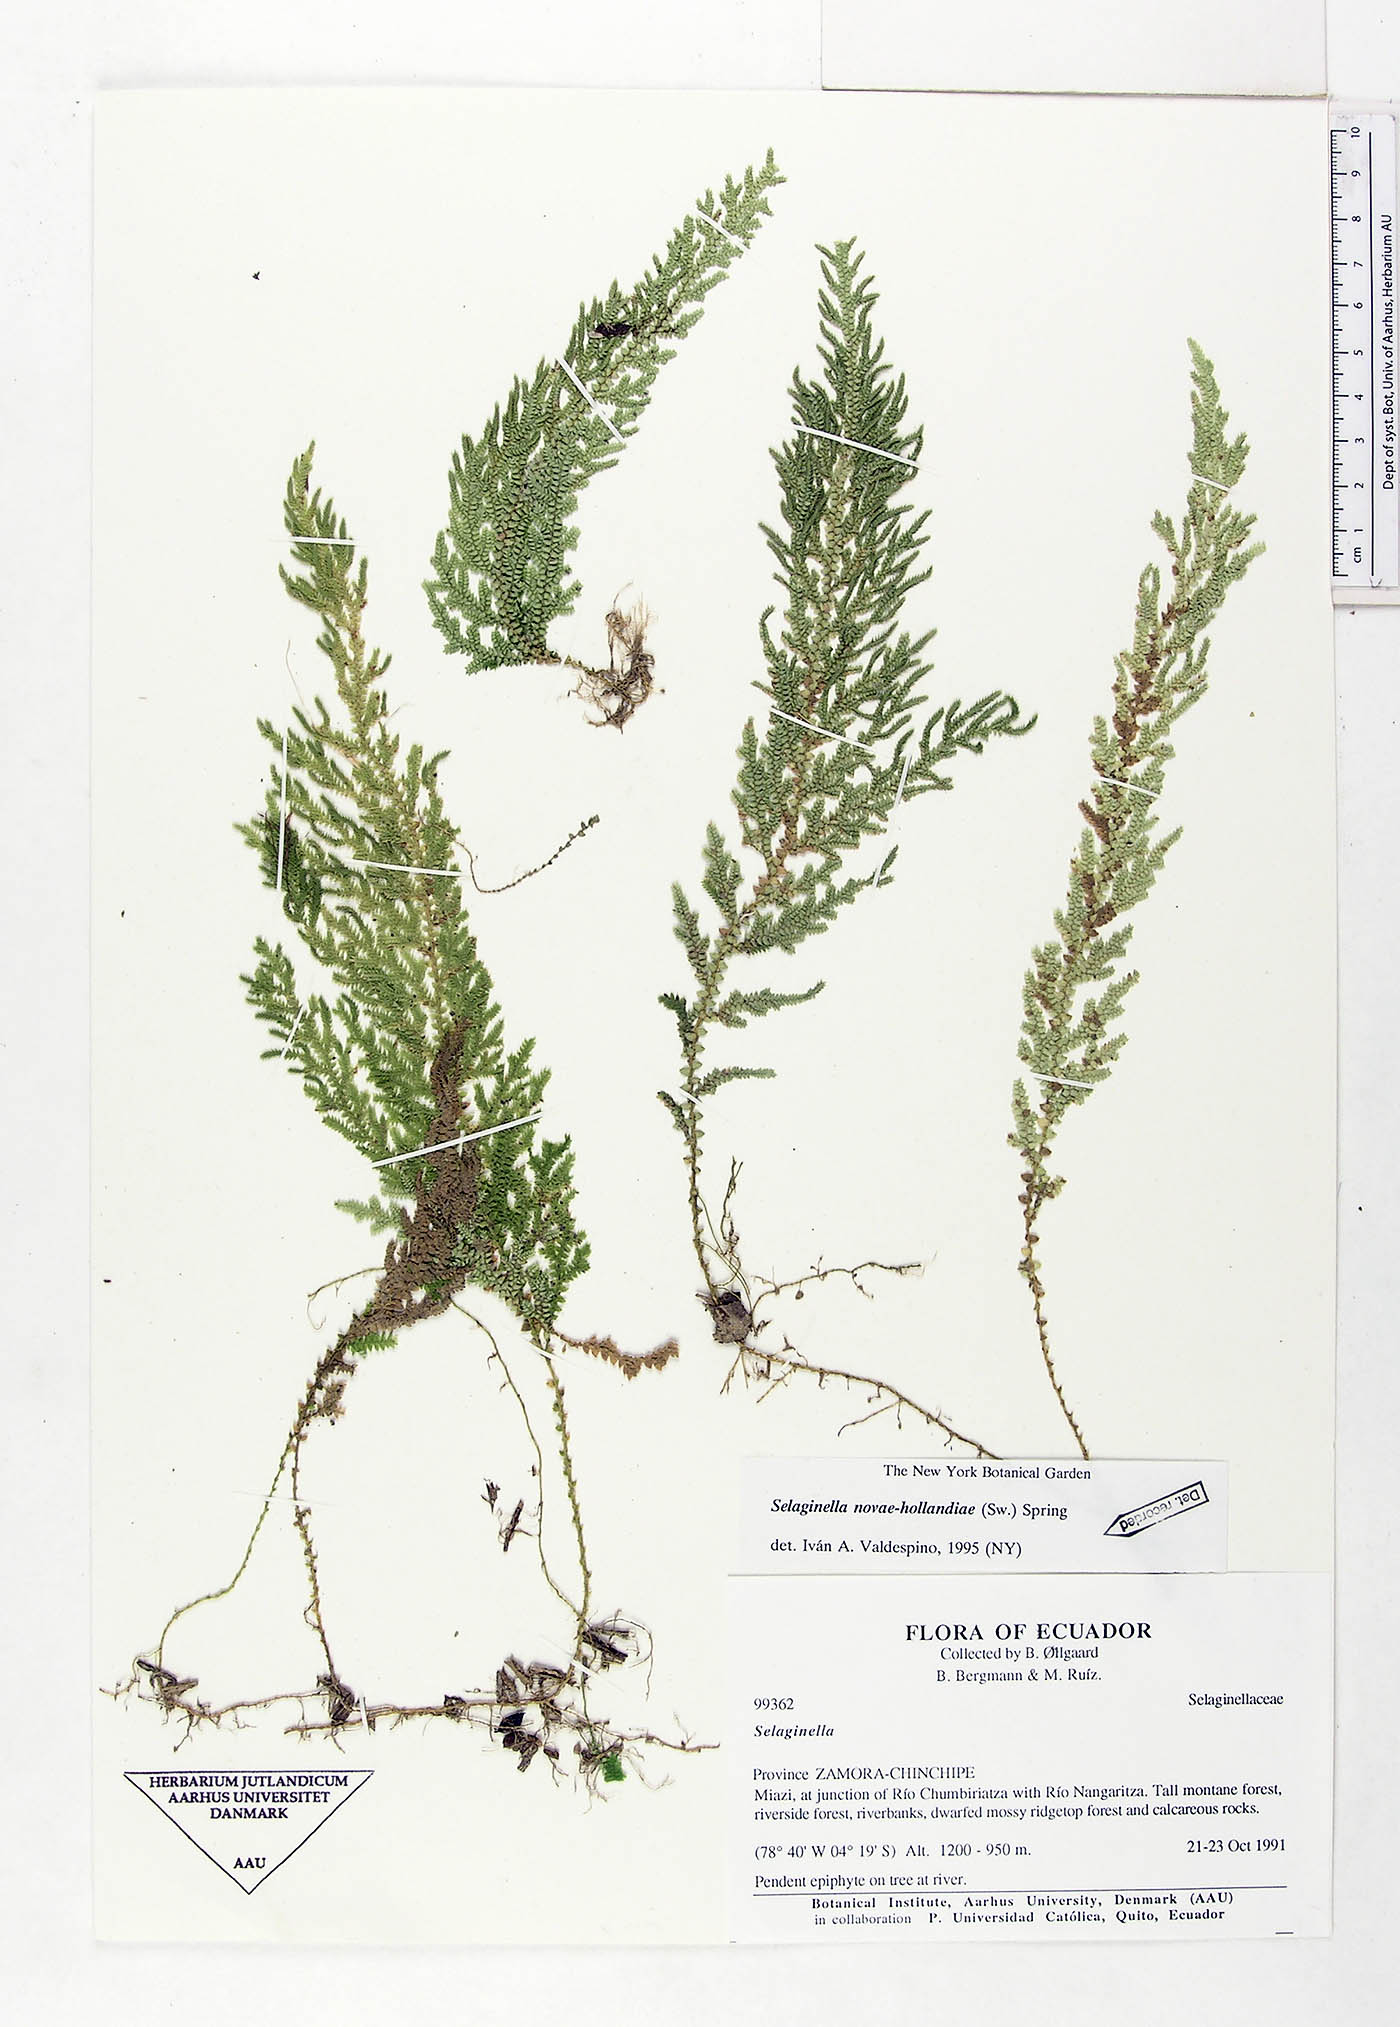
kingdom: Plantae
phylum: Tracheophyta
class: Lycopodiopsida
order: Selaginellales
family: Selaginellaceae
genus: Selaginella
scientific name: Selaginella novae-hollandiae
